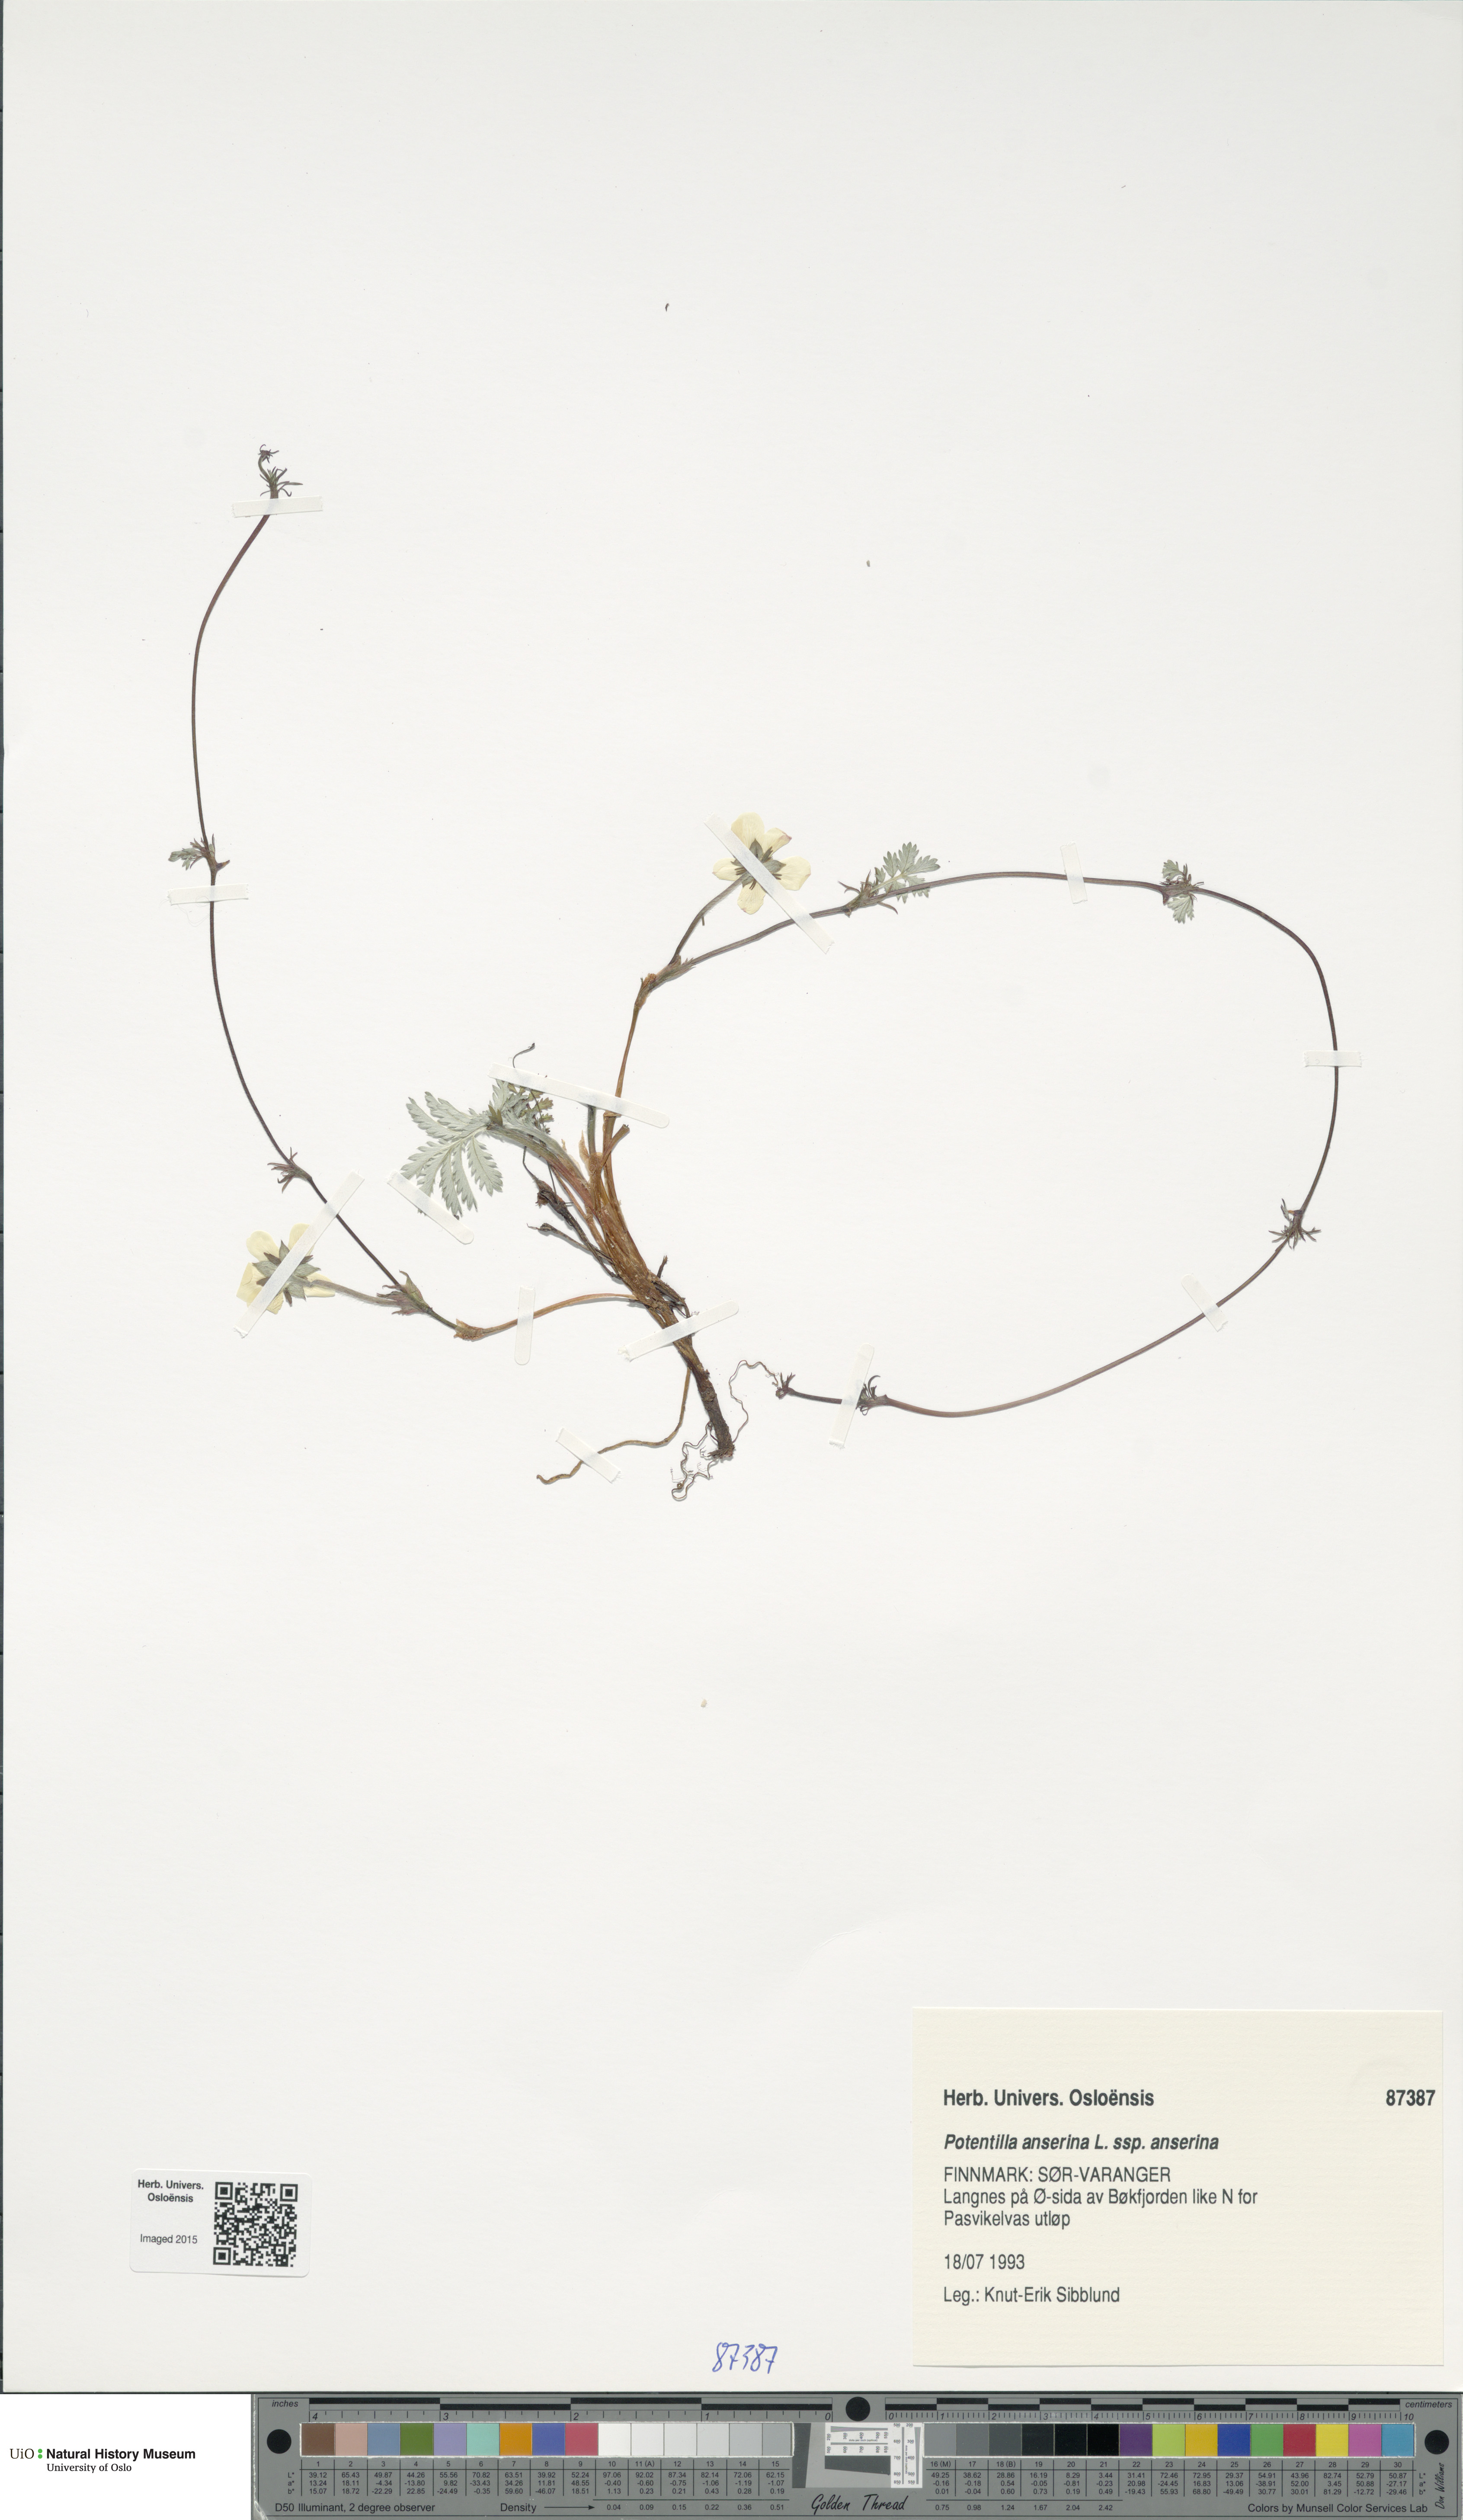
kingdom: Plantae
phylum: Tracheophyta
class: Magnoliopsida
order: Rosales
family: Rosaceae
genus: Argentina
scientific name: Argentina anserina
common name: Common silverweed
